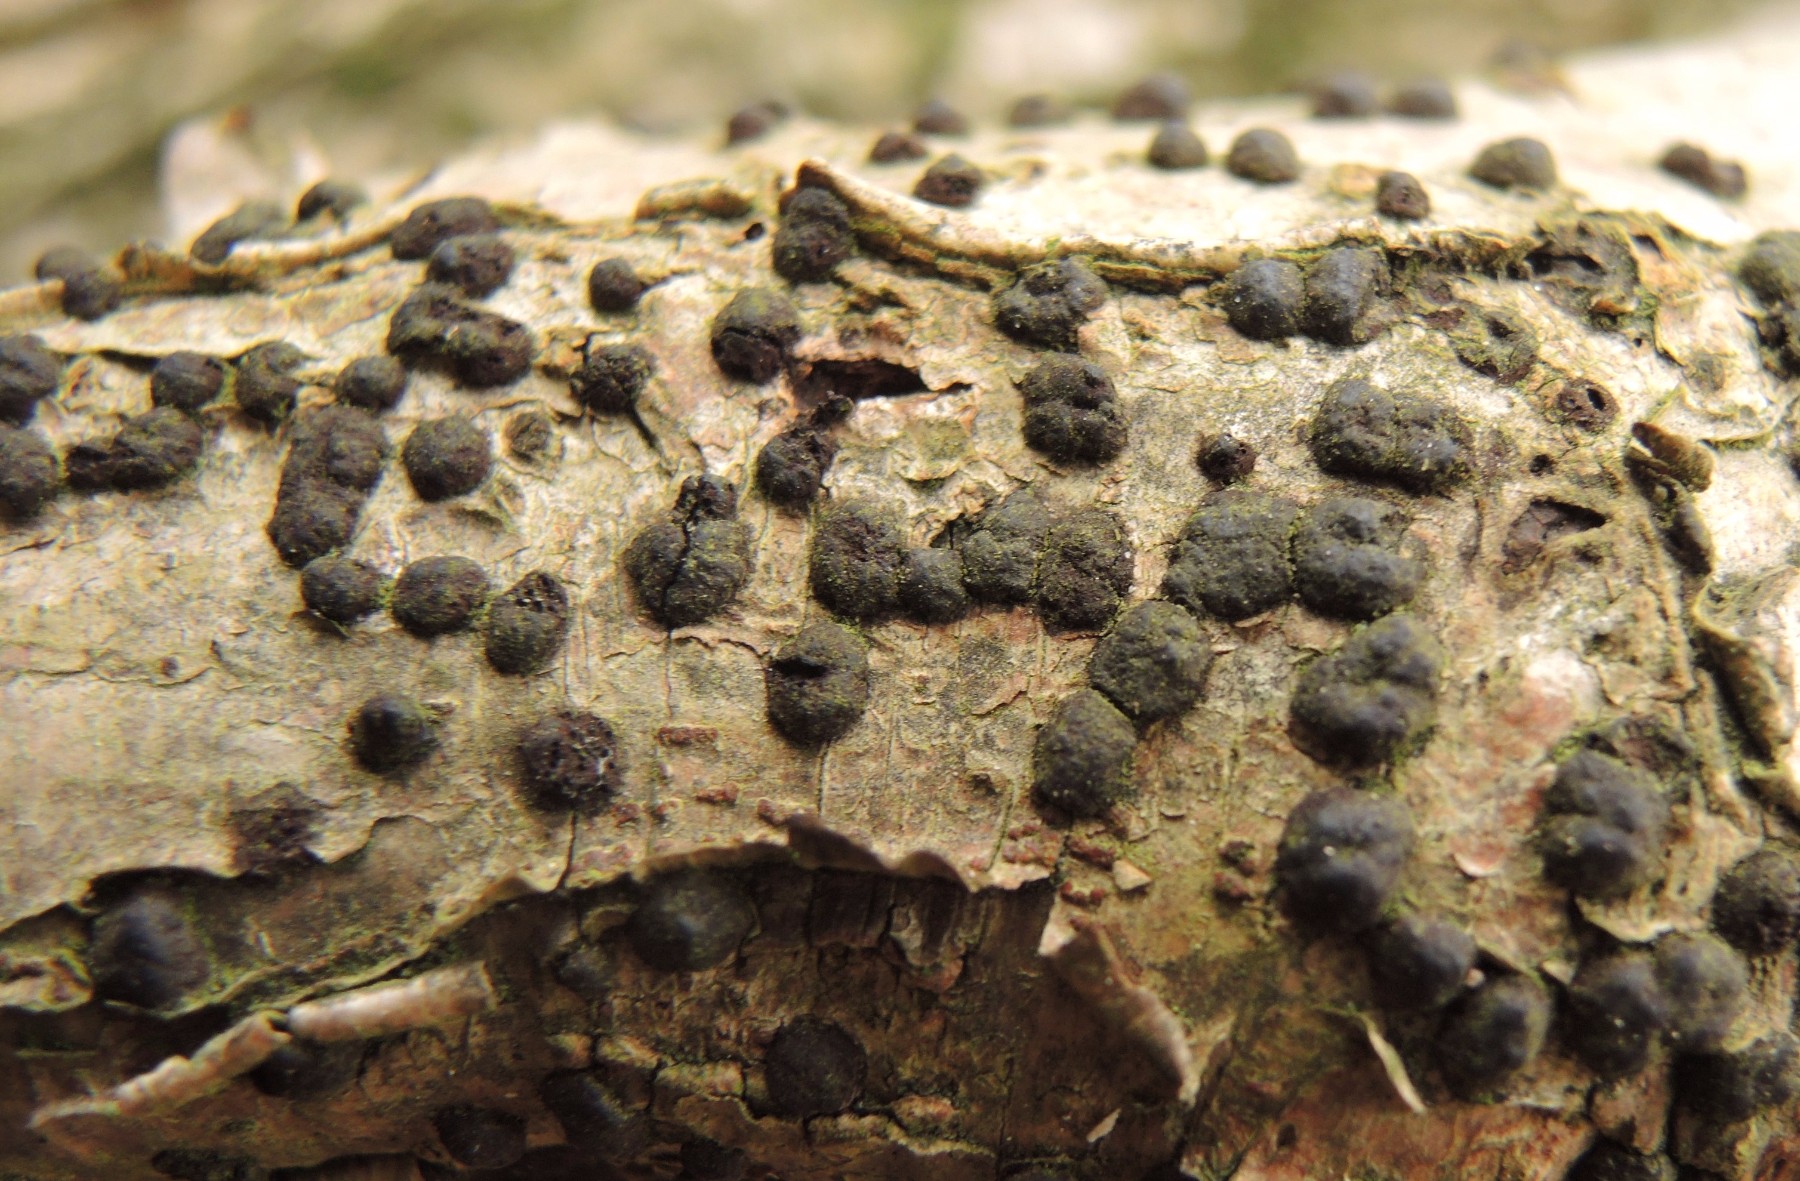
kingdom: Fungi
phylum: Ascomycota
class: Sordariomycetes
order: Xylariales
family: Hypoxylaceae
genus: Hypoxylon
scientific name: Hypoxylon fuscum
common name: kegleformet kulbær
